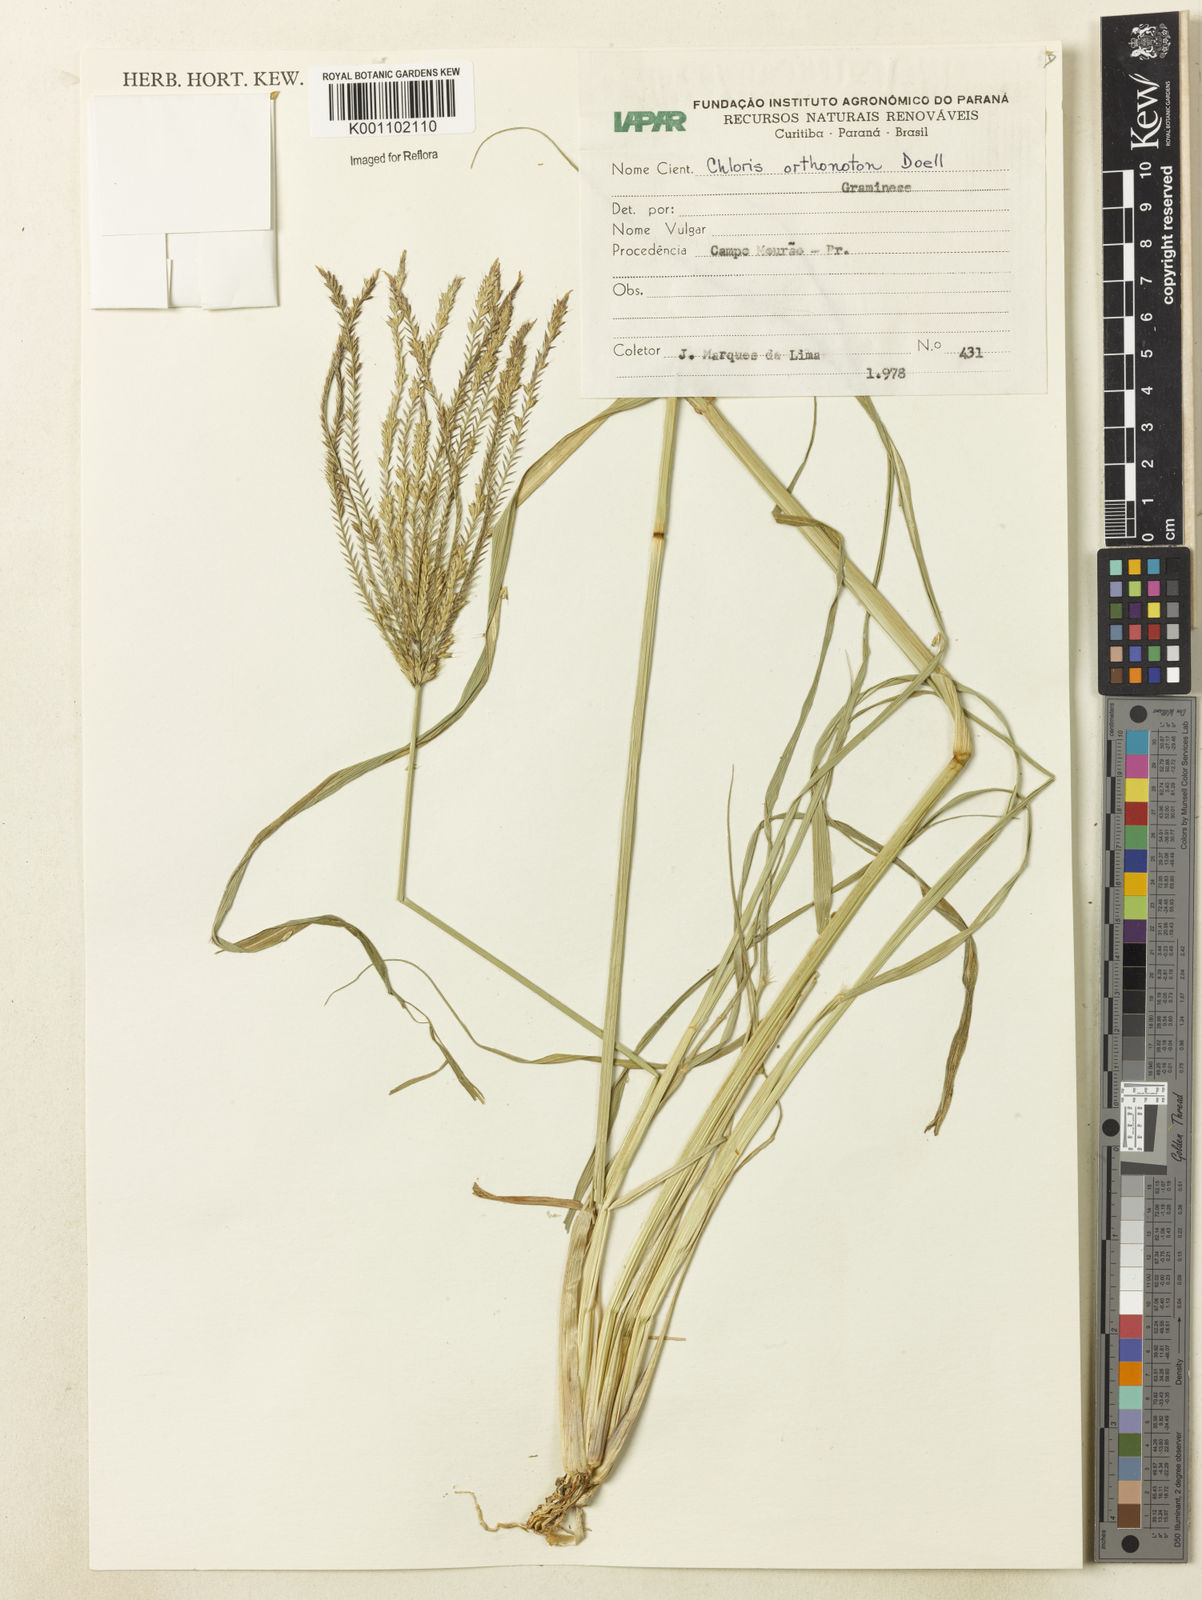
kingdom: Plantae
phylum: Tracheophyta
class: Liliopsida
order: Poales
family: Poaceae
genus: Chloris
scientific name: Chloris gayana
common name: Rhodes grass
